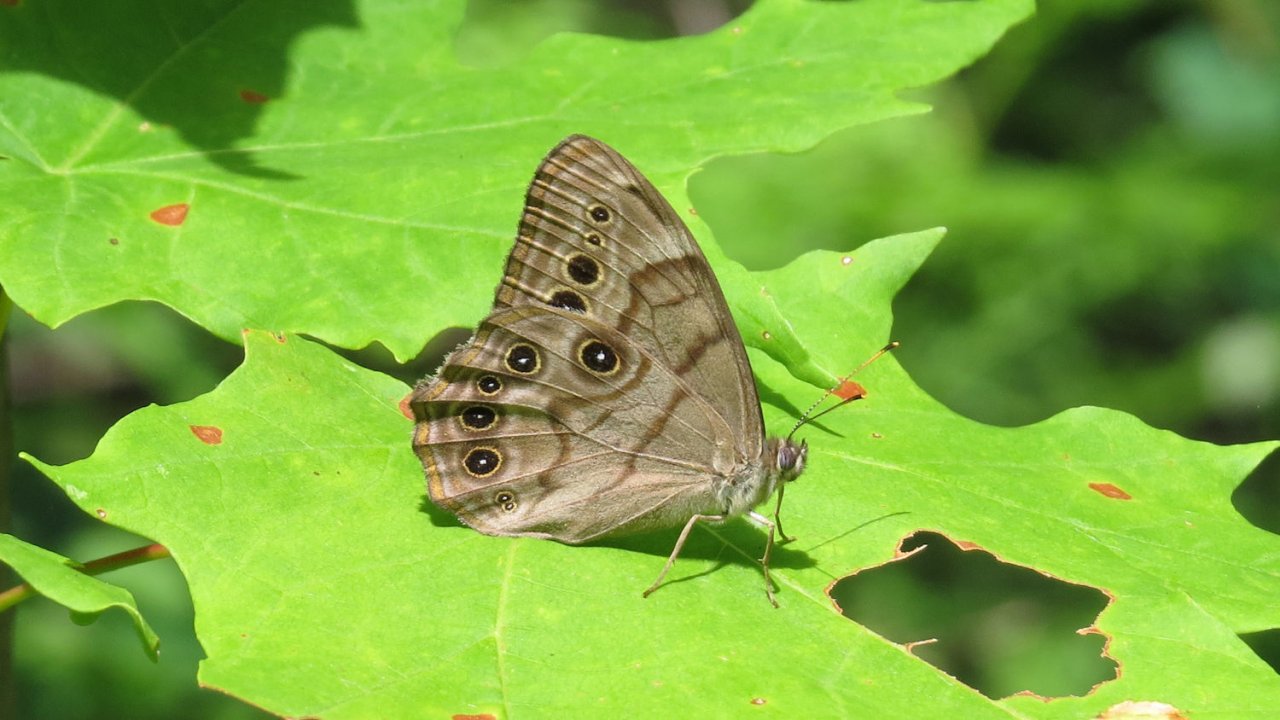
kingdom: Animalia
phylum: Arthropoda
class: Insecta
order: Lepidoptera
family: Nymphalidae
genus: Lethe
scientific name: Lethe anthedon
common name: Northern Pearly-Eye
